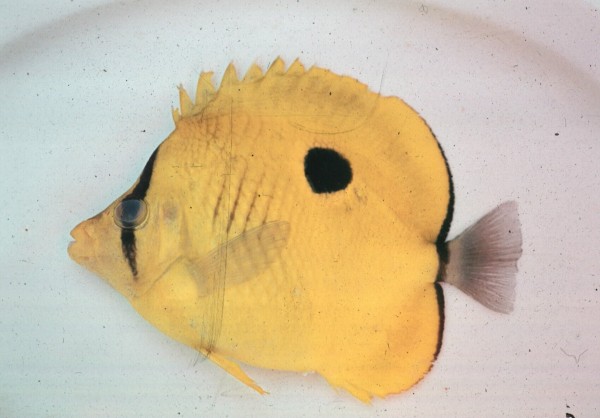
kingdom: Animalia
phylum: Chordata
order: Perciformes
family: Chaetodontidae
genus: Chaetodon
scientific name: Chaetodon interruptus
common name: Yellow teardrop butterflyfish
